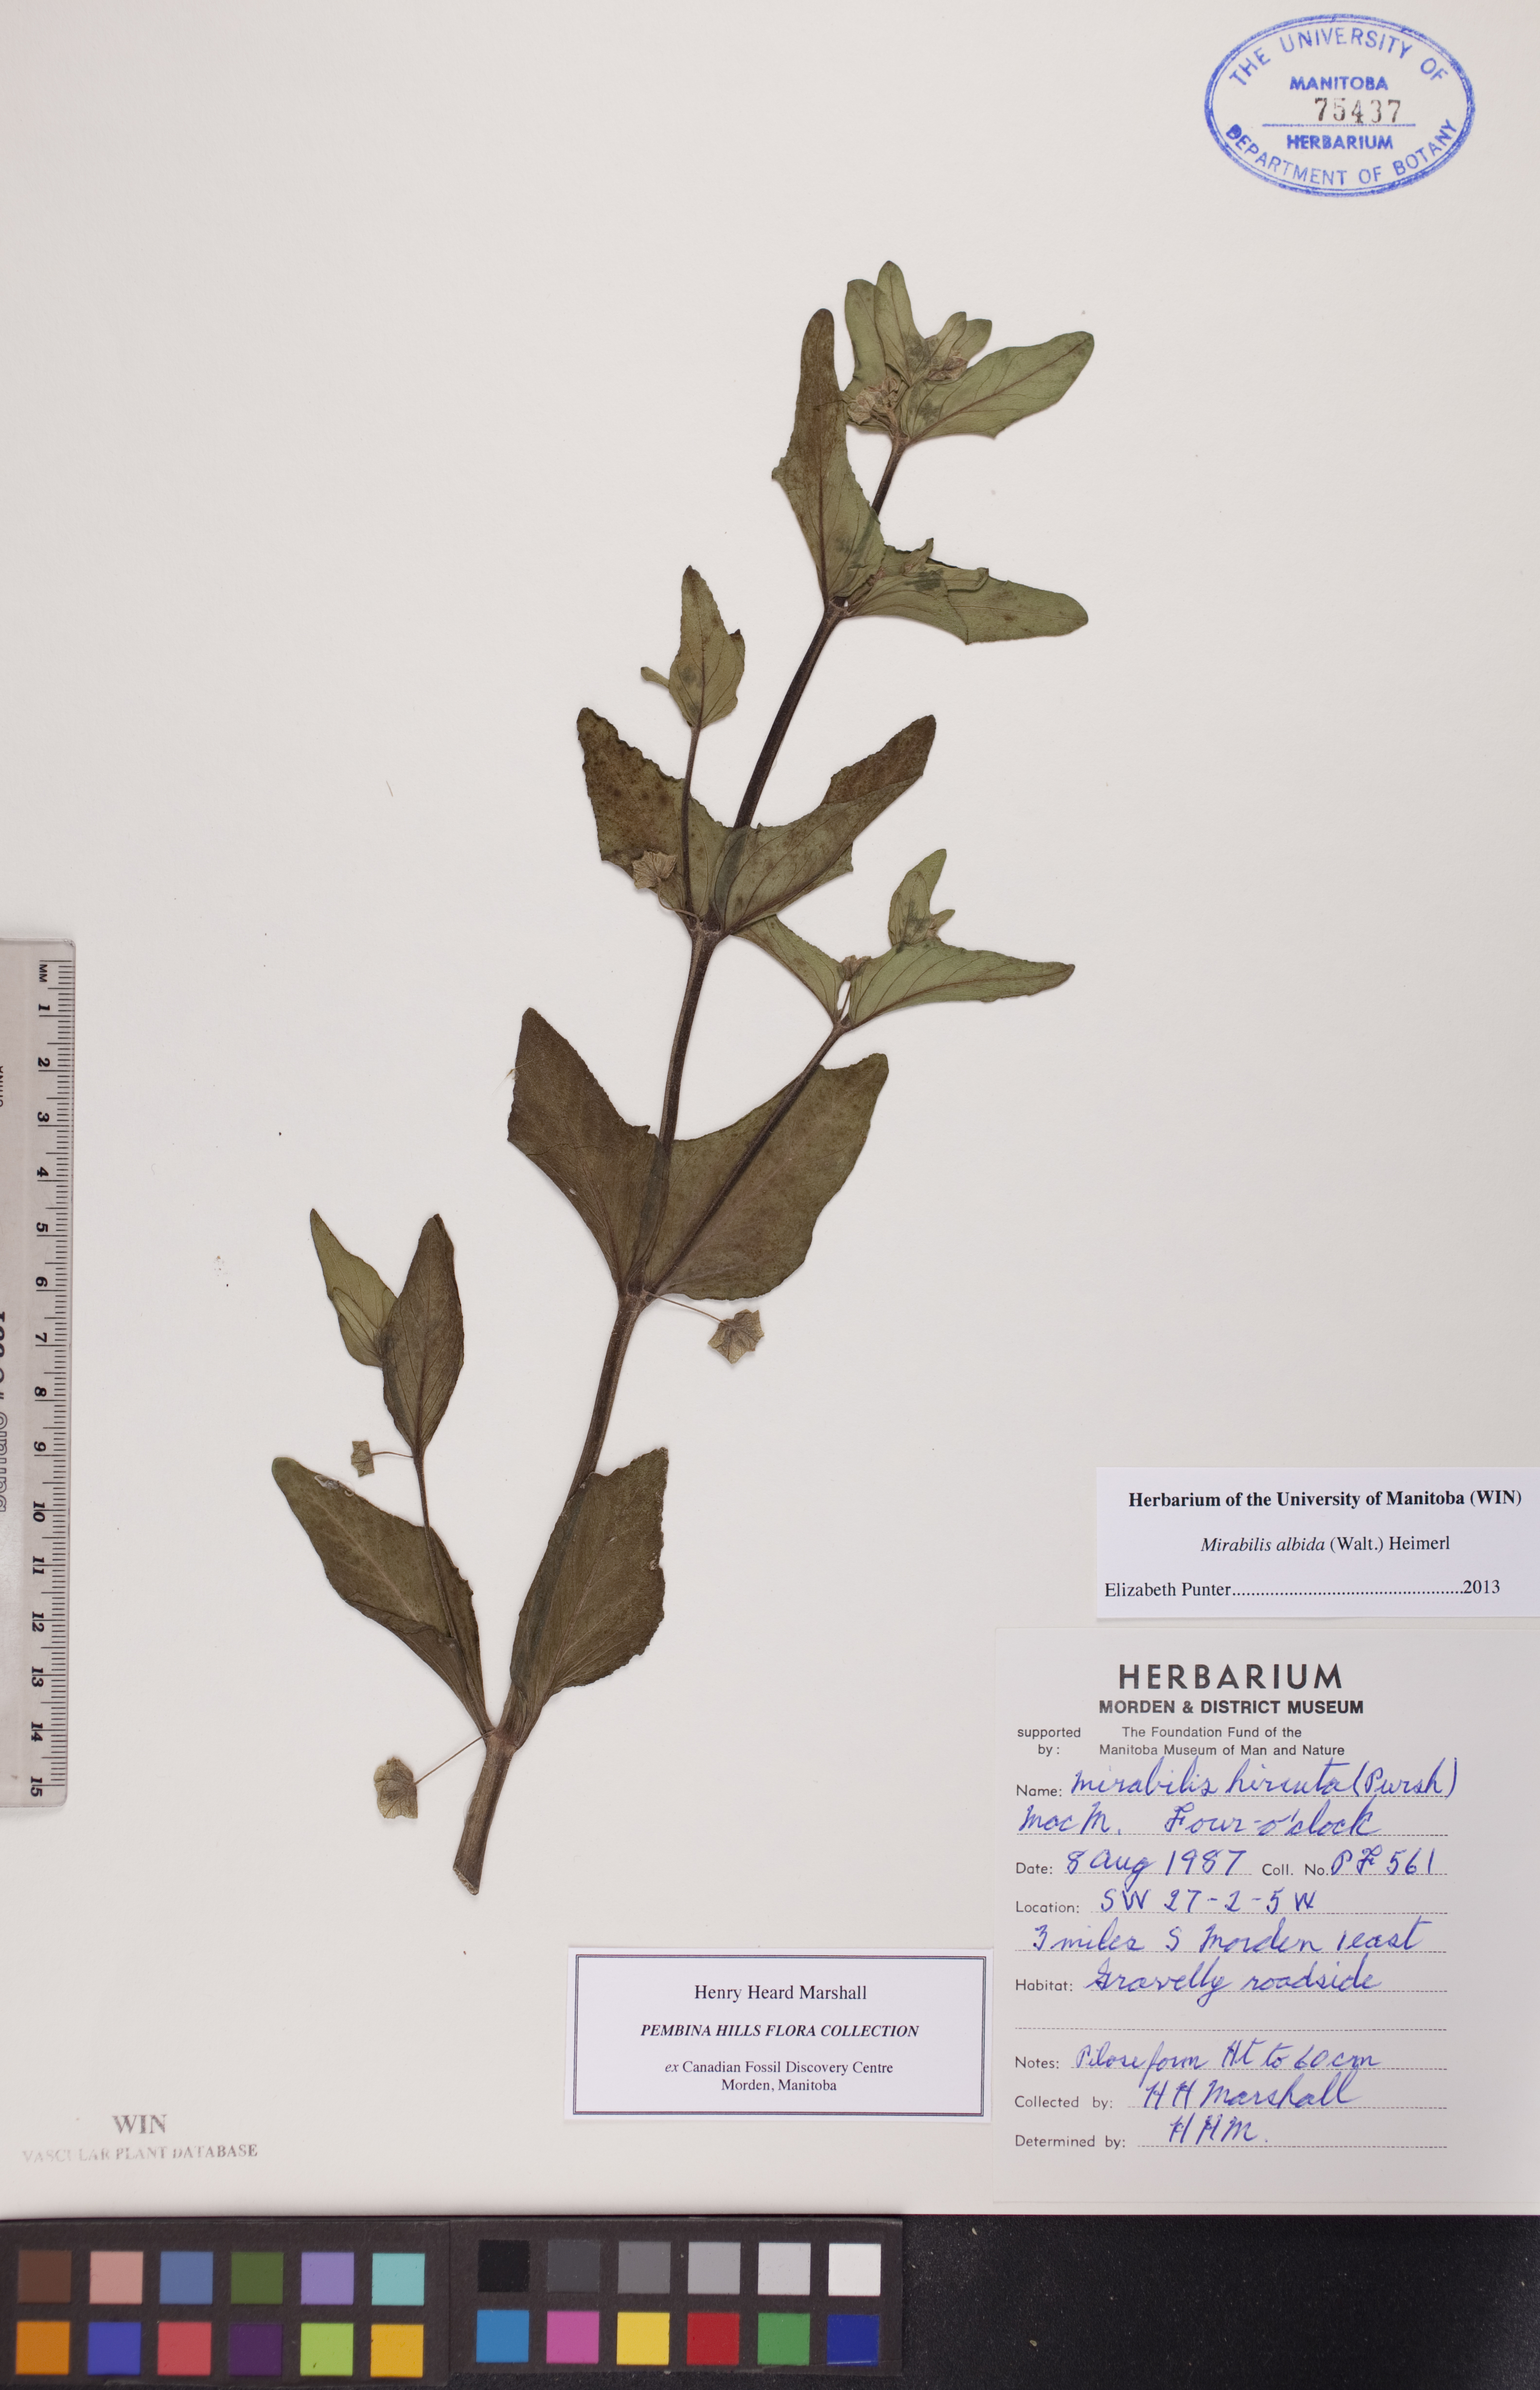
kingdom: Plantae
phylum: Tracheophyta
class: Magnoliopsida
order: Caryophyllales
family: Nyctaginaceae
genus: Mirabilis
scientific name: Mirabilis albida
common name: Hairy four-o'clock
